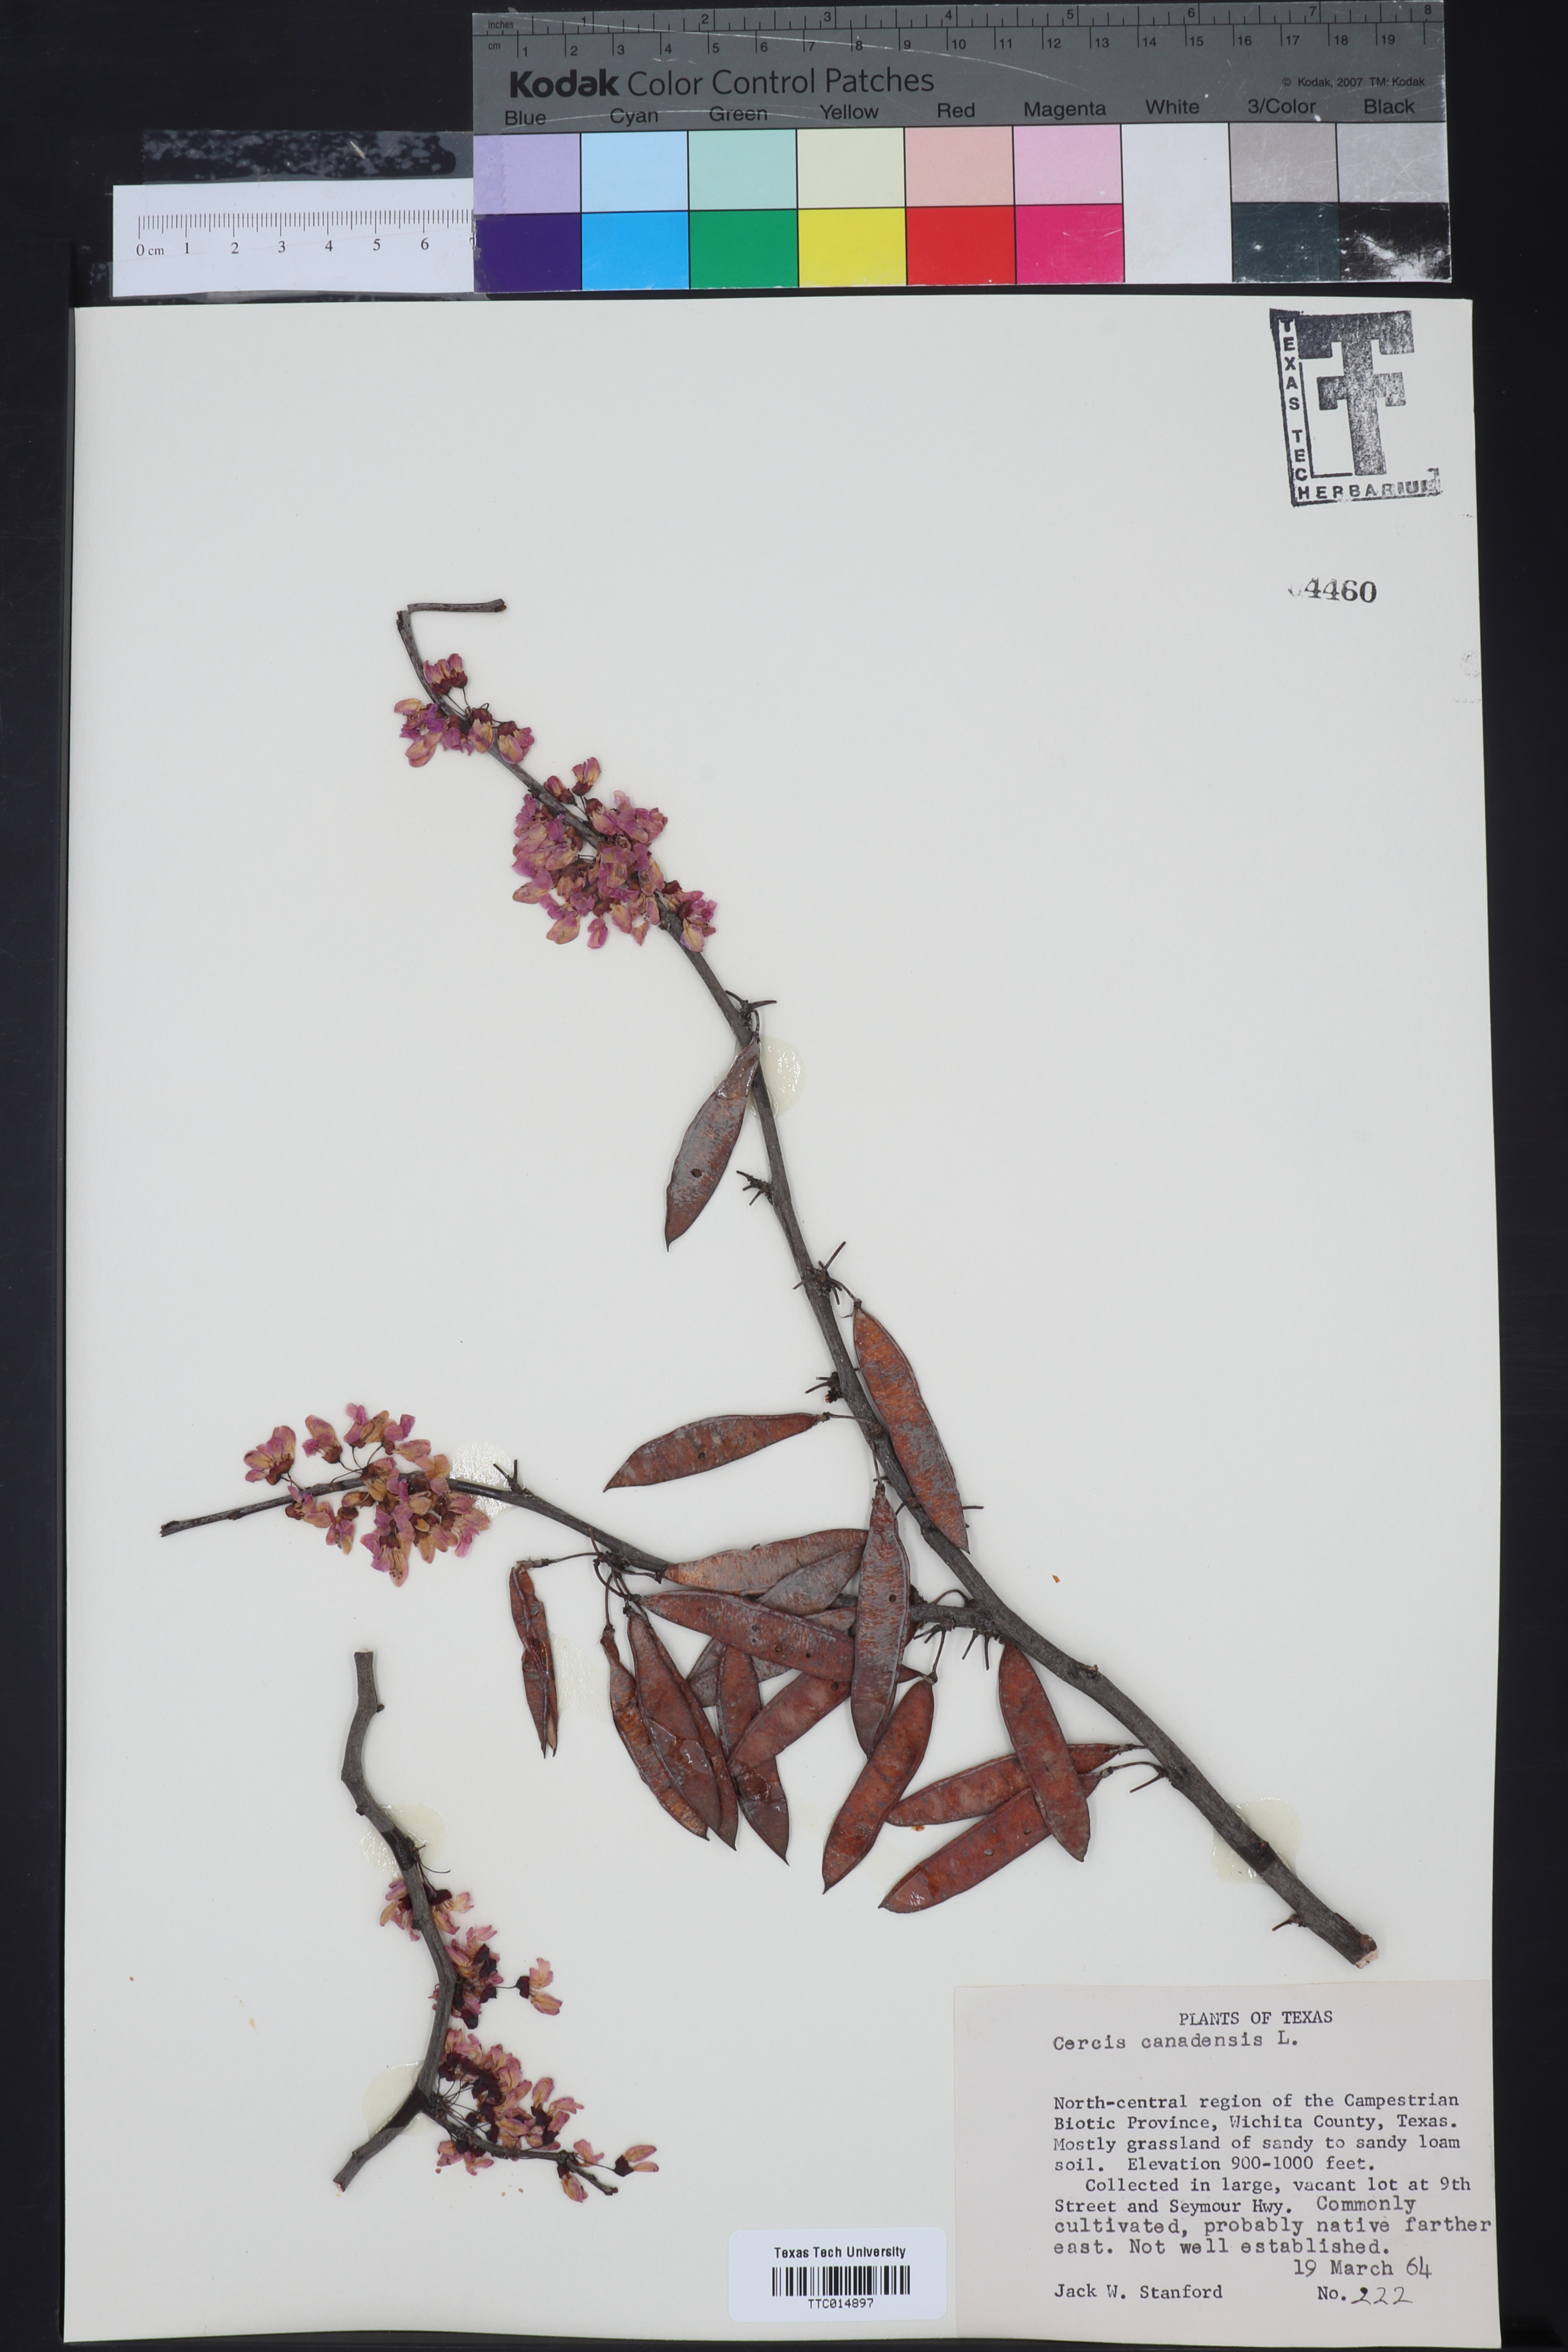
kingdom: Plantae
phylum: Tracheophyta
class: Magnoliopsida
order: Fabales
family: Fabaceae
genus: Cercis
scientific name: Cercis canadensis
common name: Eastern redbud
